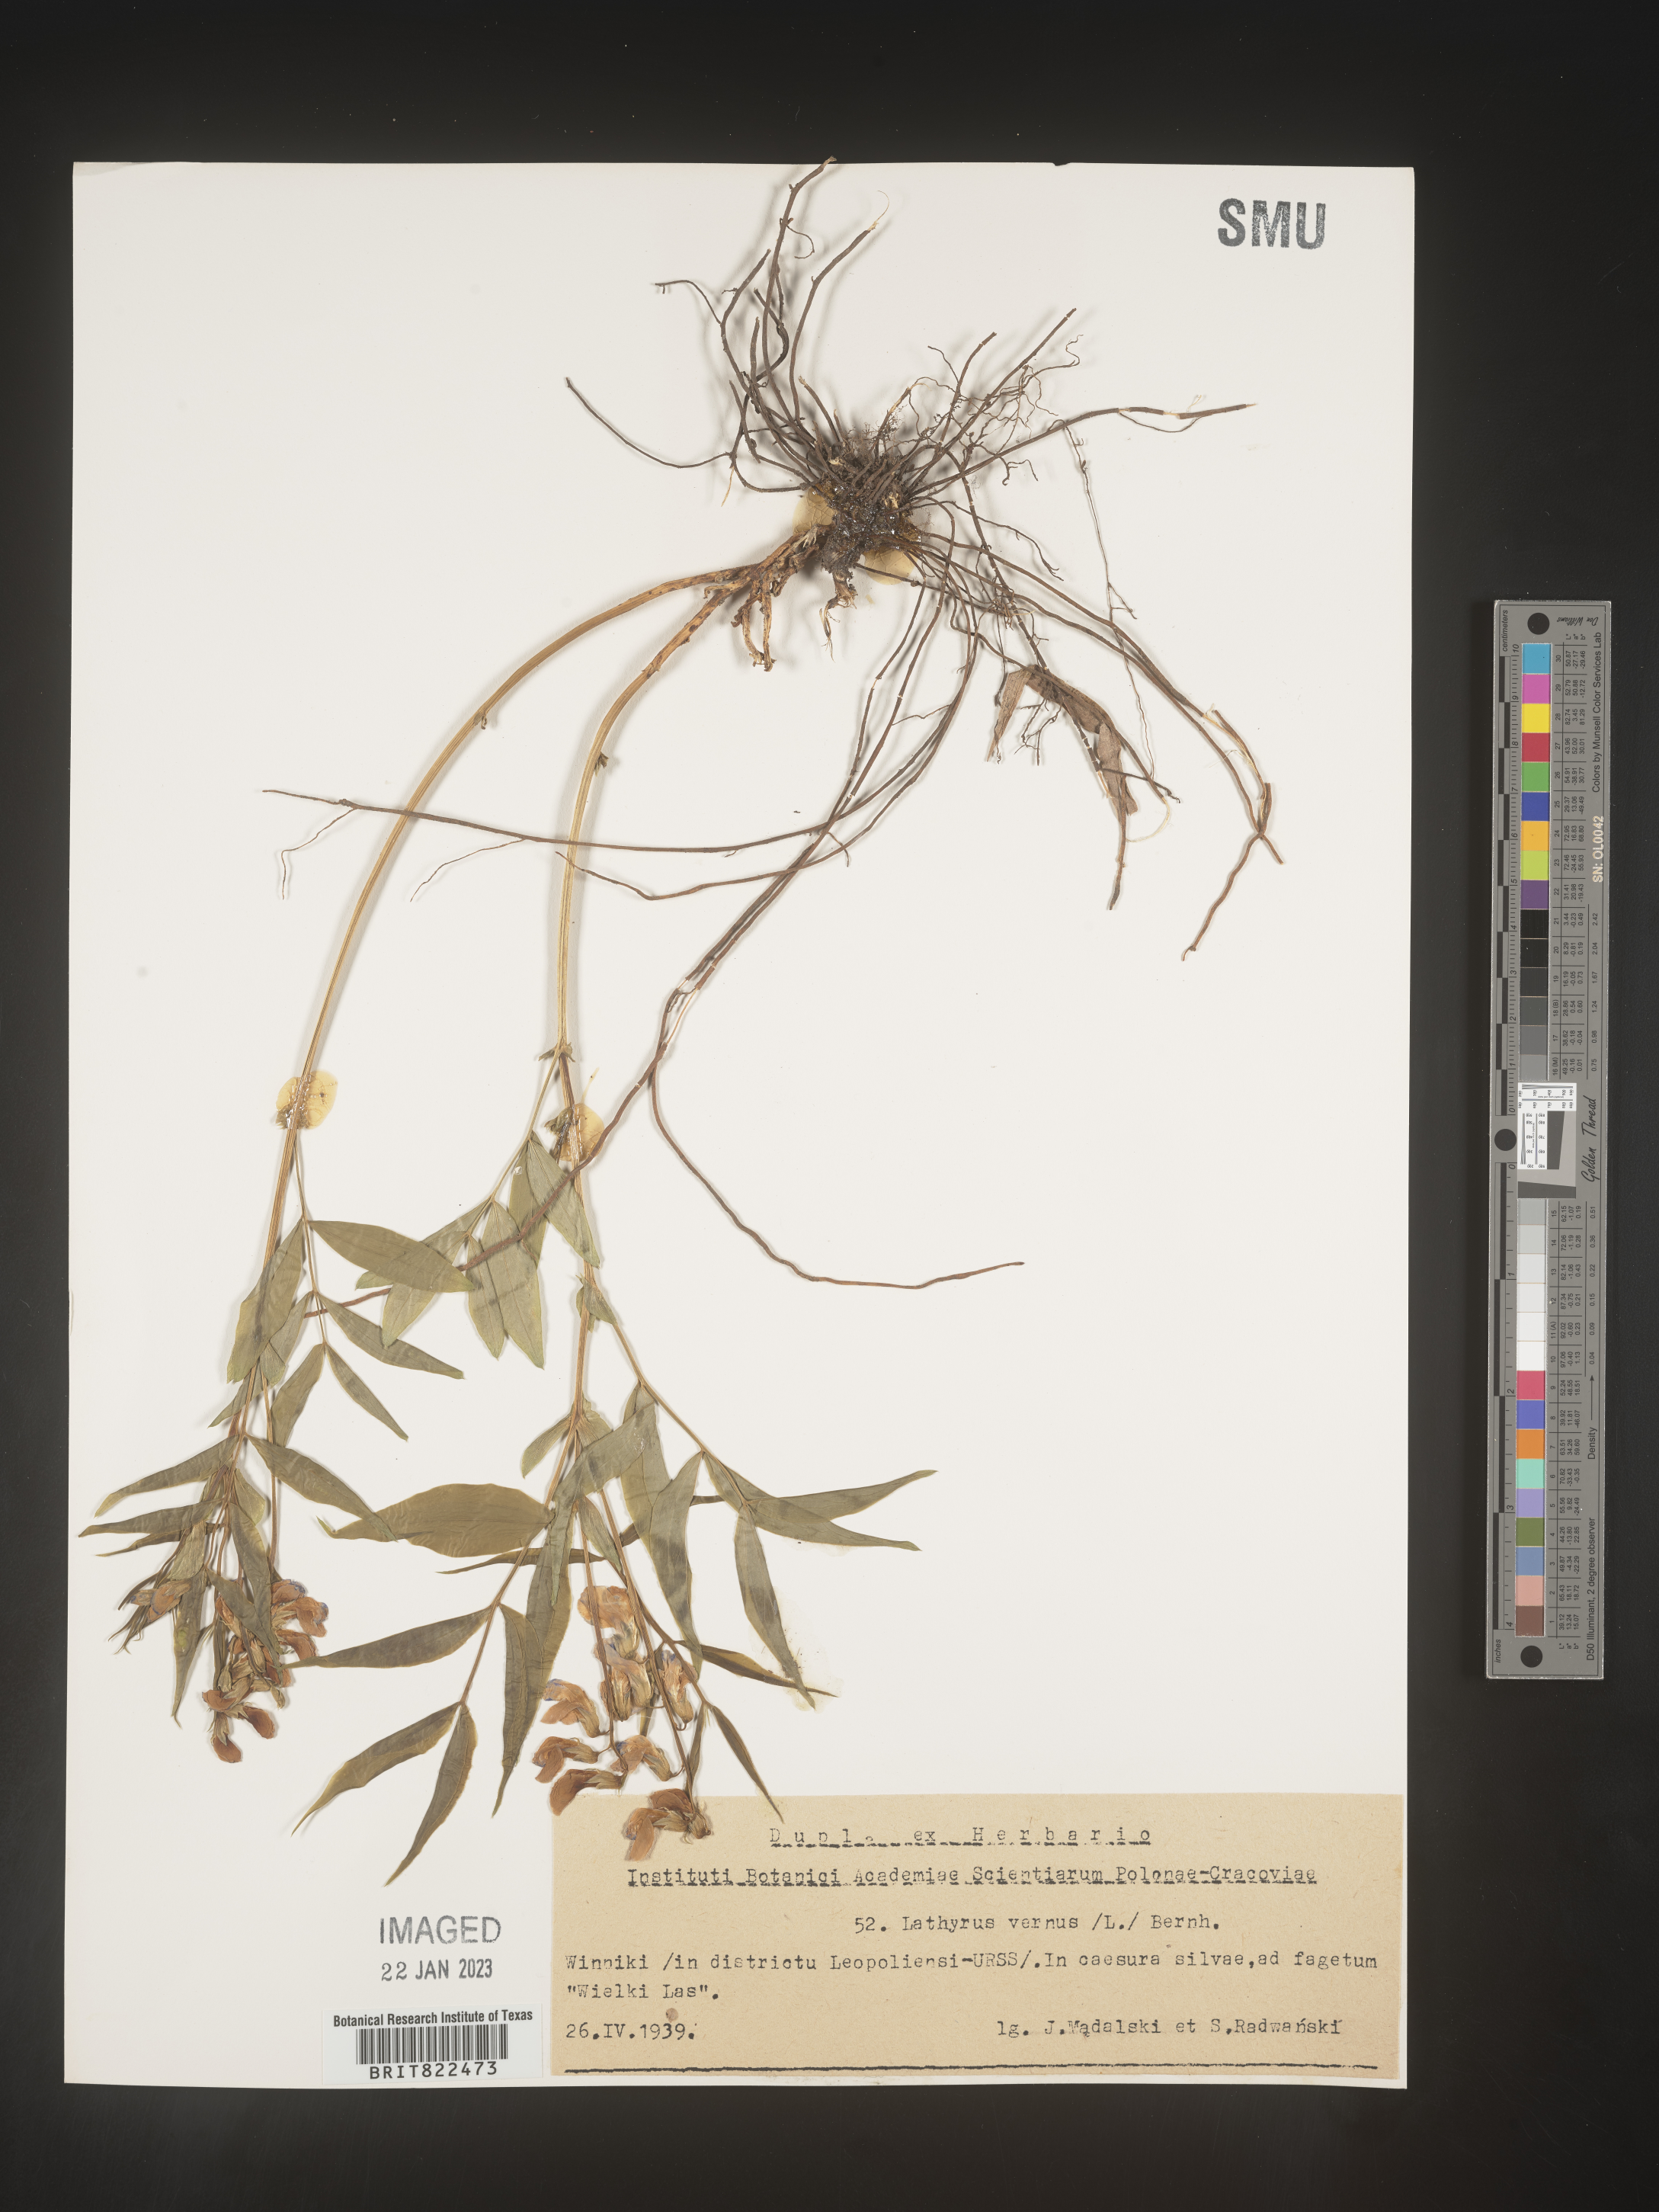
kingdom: Plantae
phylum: Tracheophyta
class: Magnoliopsida
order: Fabales
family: Fabaceae
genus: Lathyrus
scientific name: Lathyrus
